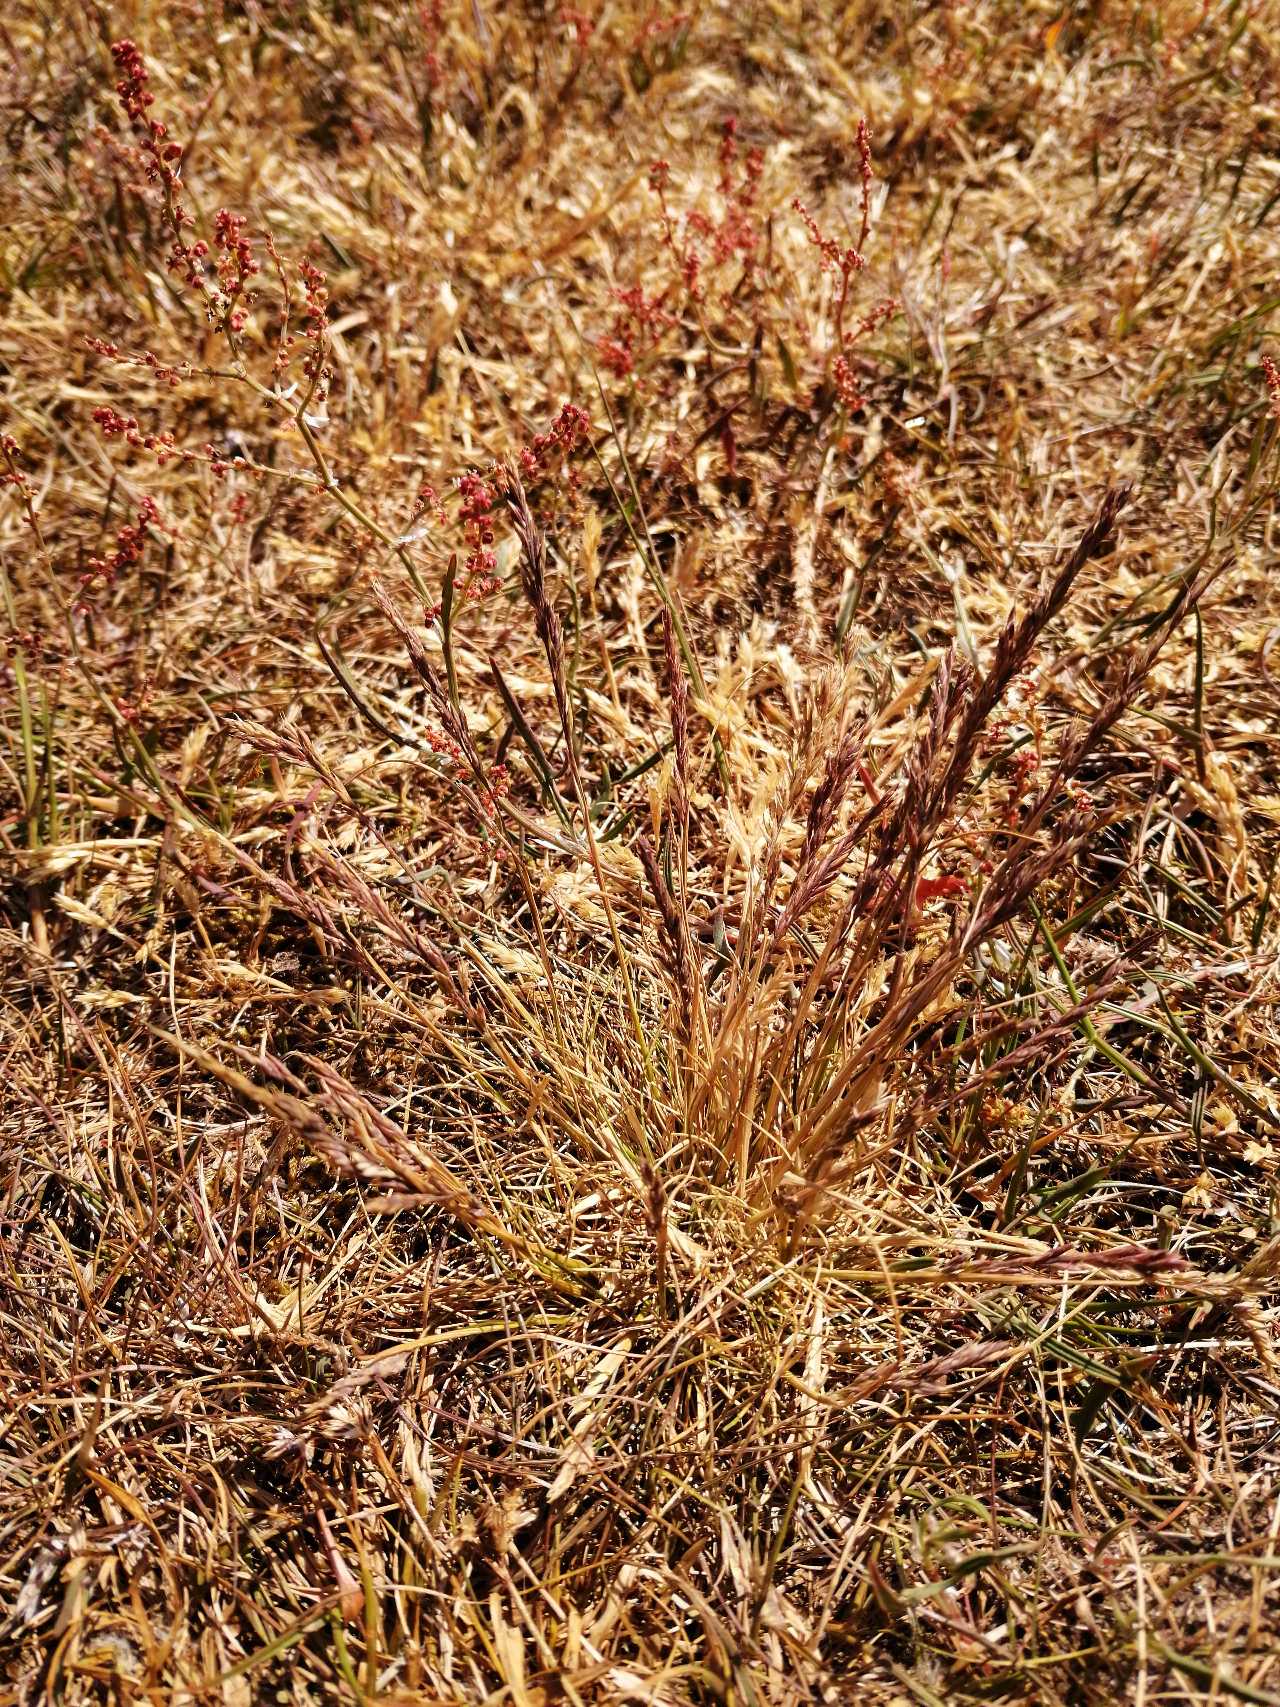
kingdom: Plantae
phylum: Tracheophyta
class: Liliopsida
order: Poales
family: Poaceae
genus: Festuca
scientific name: Festuca ovina
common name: Fåre-svingel
